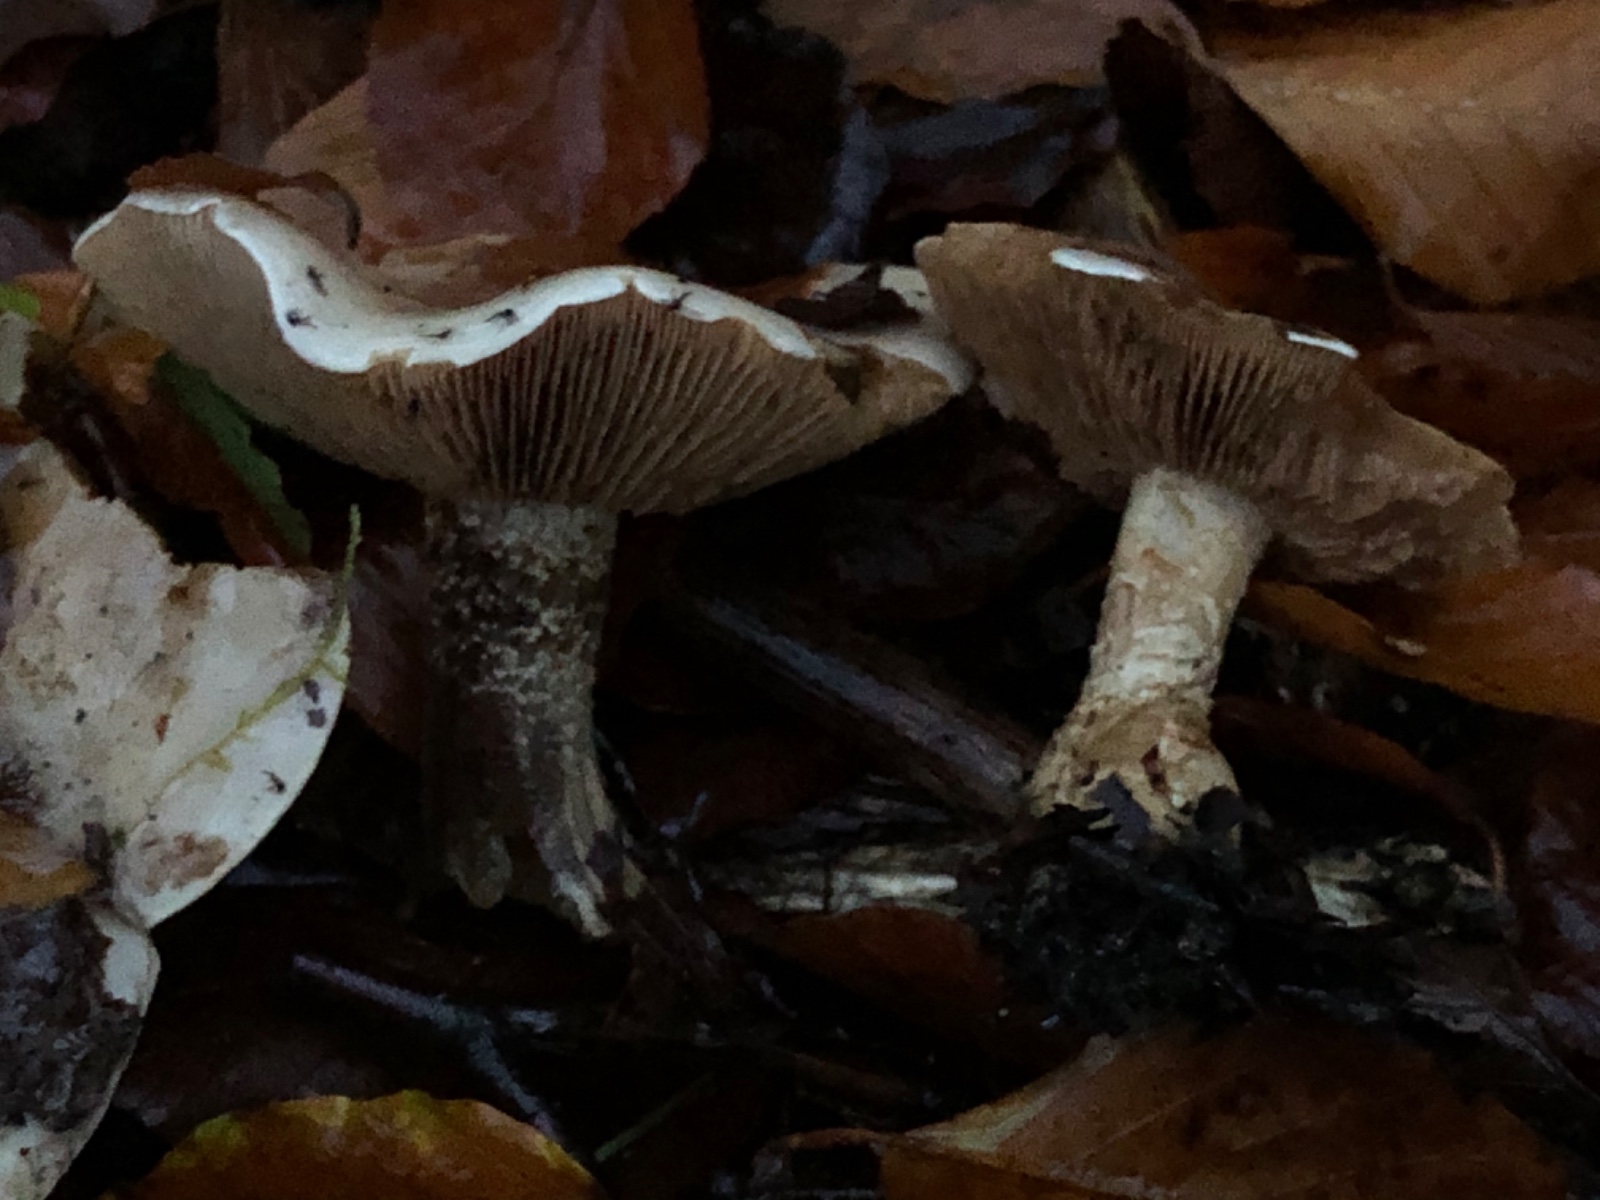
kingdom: Fungi
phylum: Basidiomycota
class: Agaricomycetes
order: Agaricales
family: Hymenogastraceae
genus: Hebeloma
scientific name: Hebeloma laterinum
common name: kakao-tåreblad
